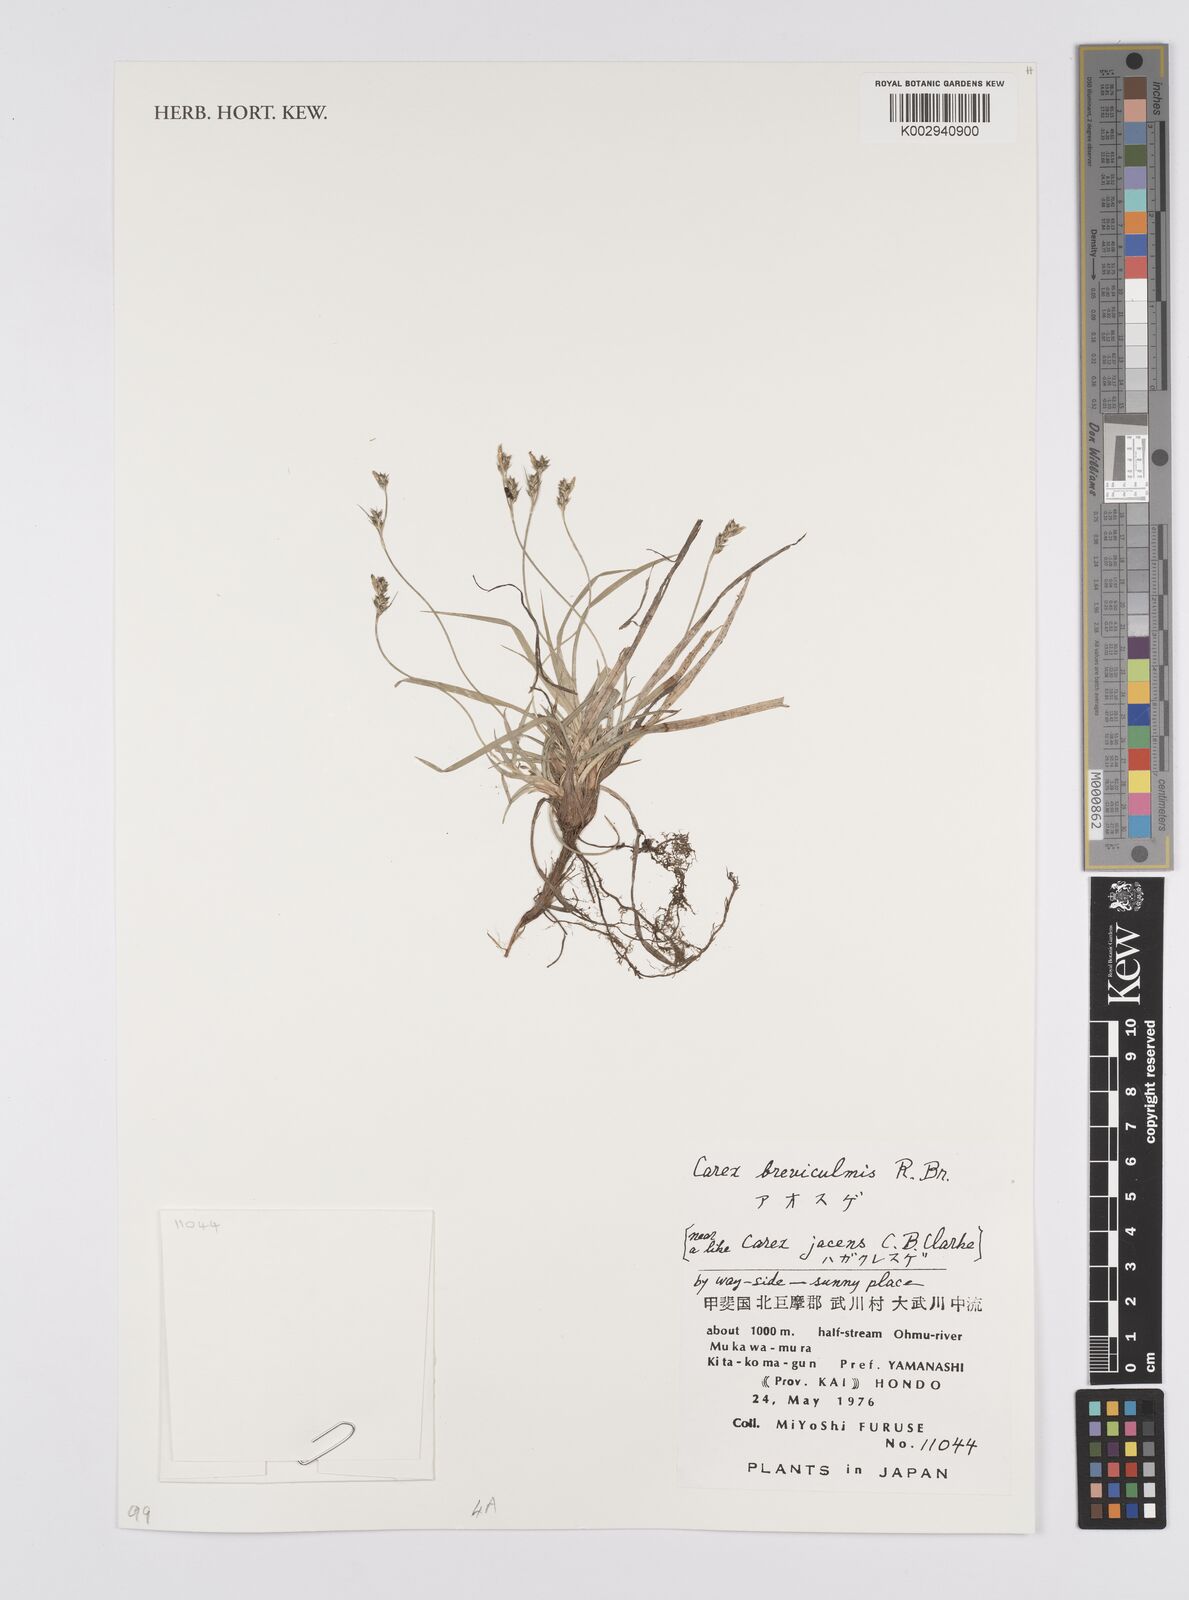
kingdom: Plantae
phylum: Tracheophyta
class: Liliopsida
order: Poales
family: Cyperaceae
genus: Carex
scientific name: Carex breviculmis
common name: Asian shortstem sedge
